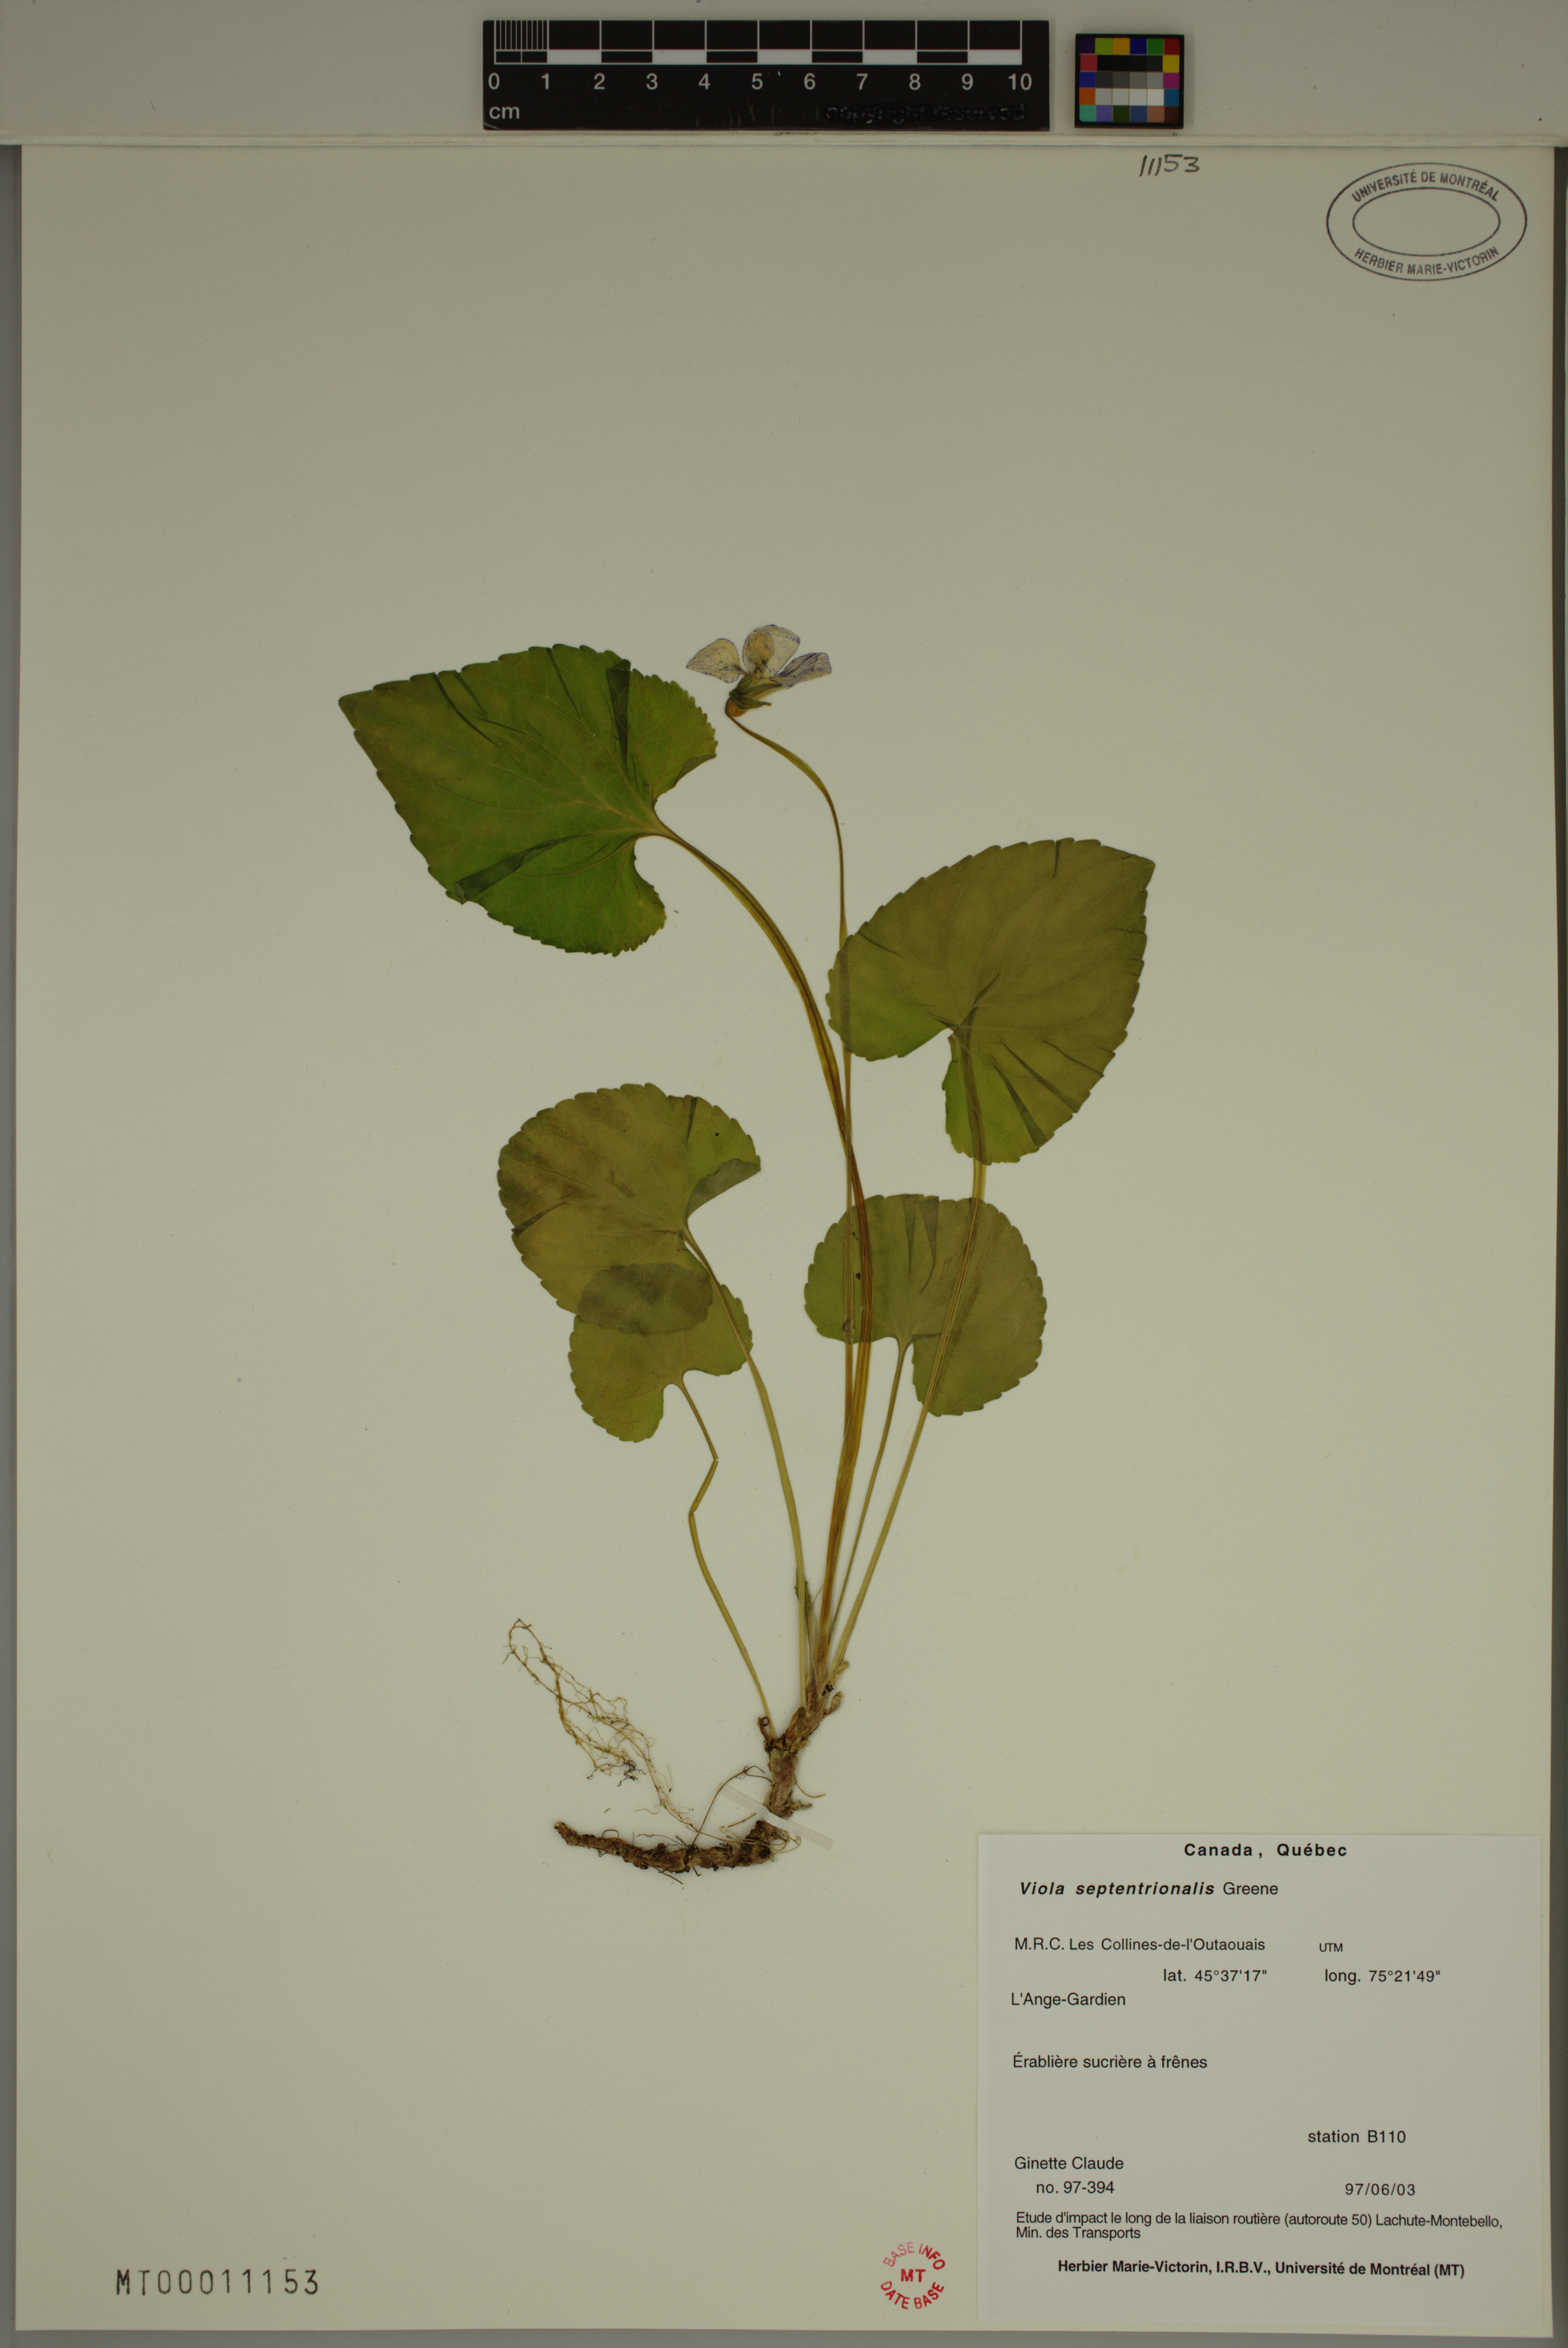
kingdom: Plantae
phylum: Tracheophyta
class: Magnoliopsida
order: Malpighiales
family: Violaceae
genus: Viola
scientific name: Viola sororia
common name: Dooryard violet
